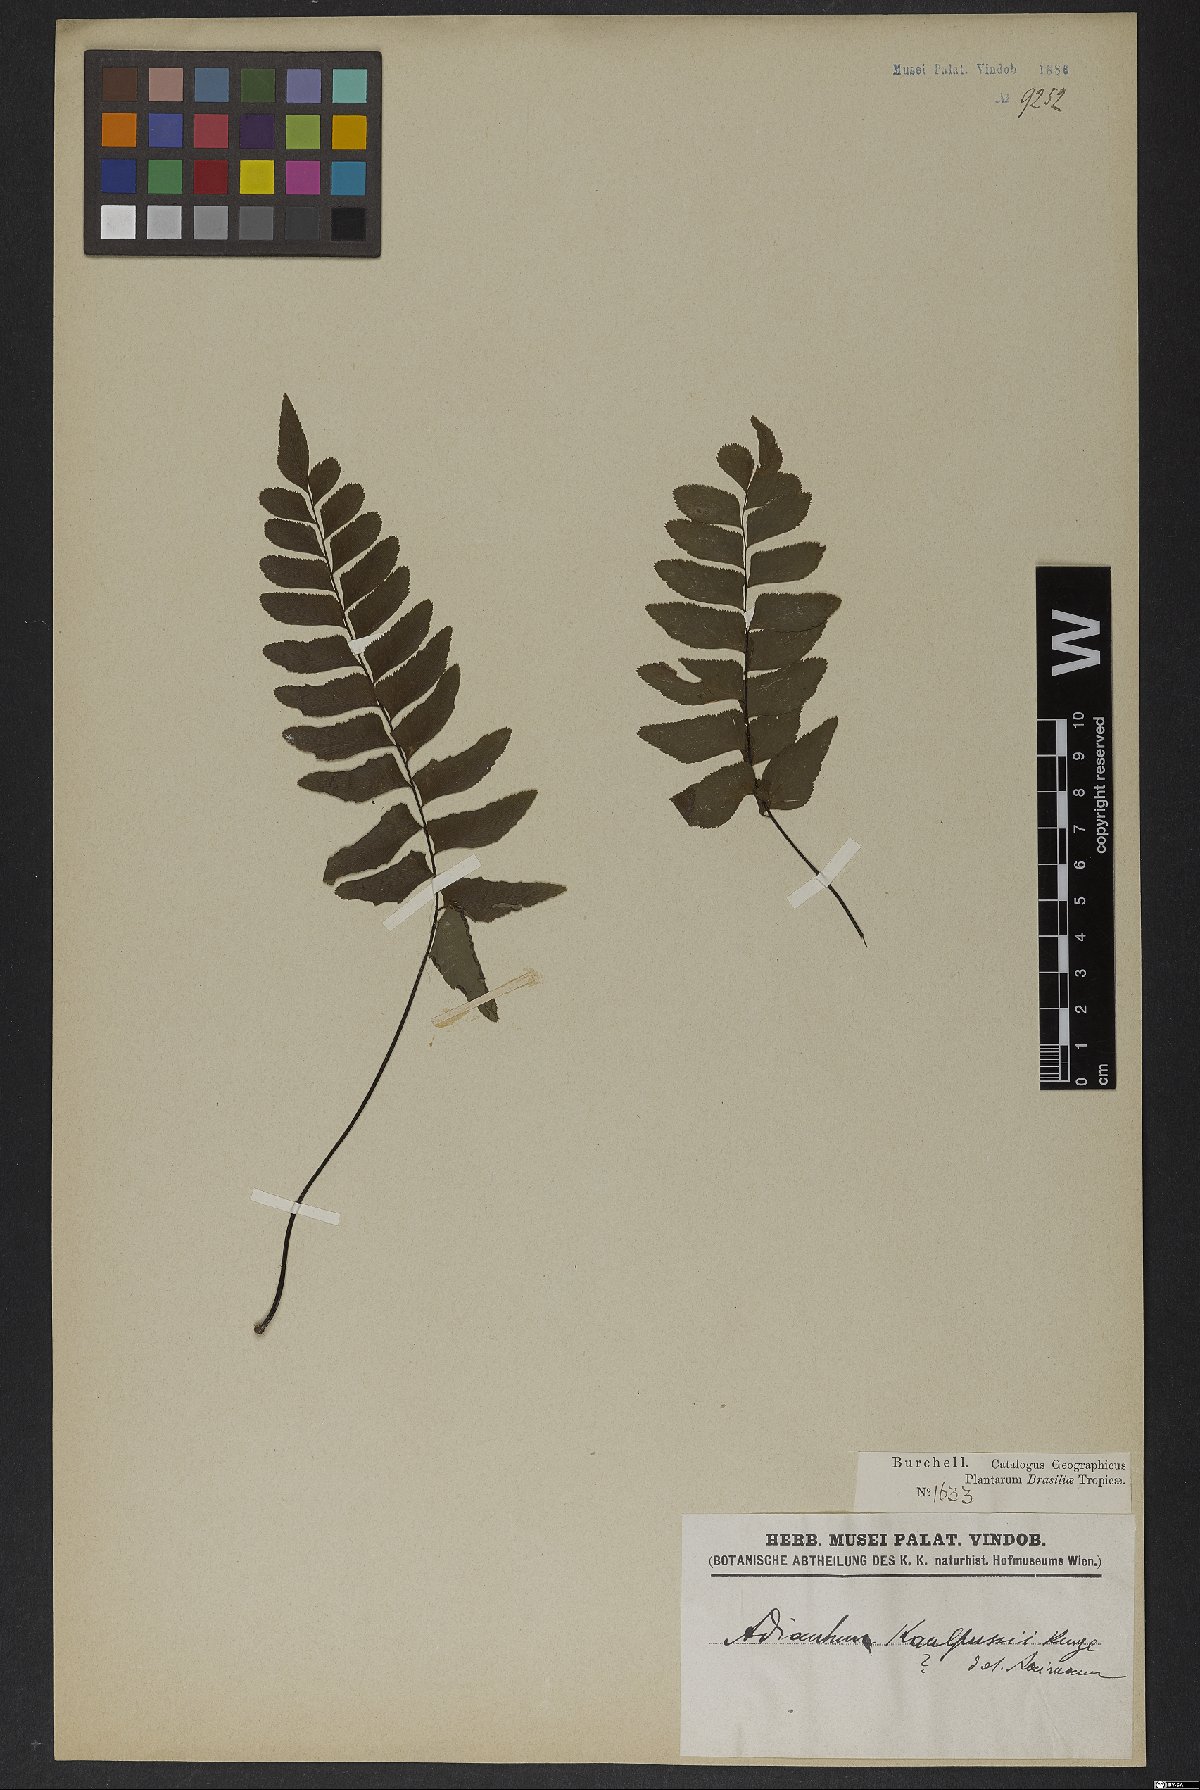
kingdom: Plantae
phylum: Tracheophyta
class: Polypodiopsida
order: Polypodiales
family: Pteridaceae
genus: Adiantum
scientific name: Adiantum petiolatum
